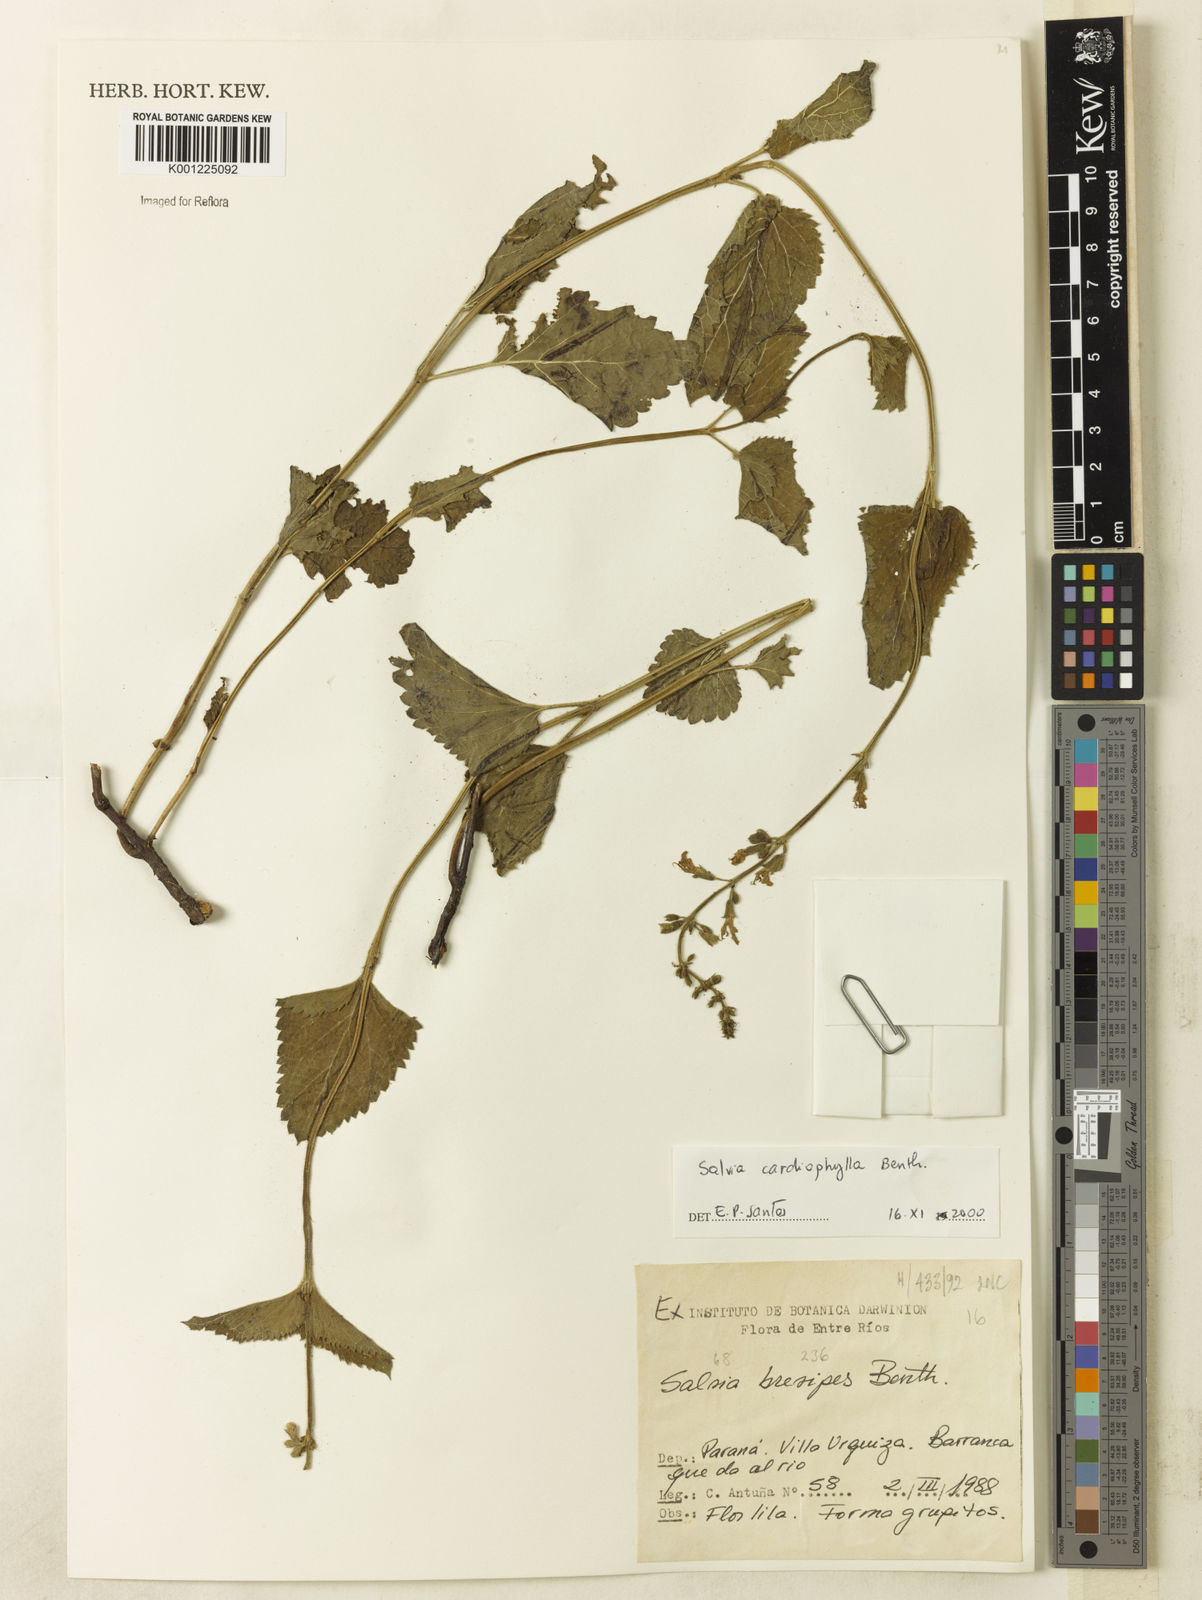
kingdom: Plantae
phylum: Tracheophyta
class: Magnoliopsida
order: Lamiales
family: Lamiaceae
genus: Salvia
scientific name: Salvia cardiophylla
